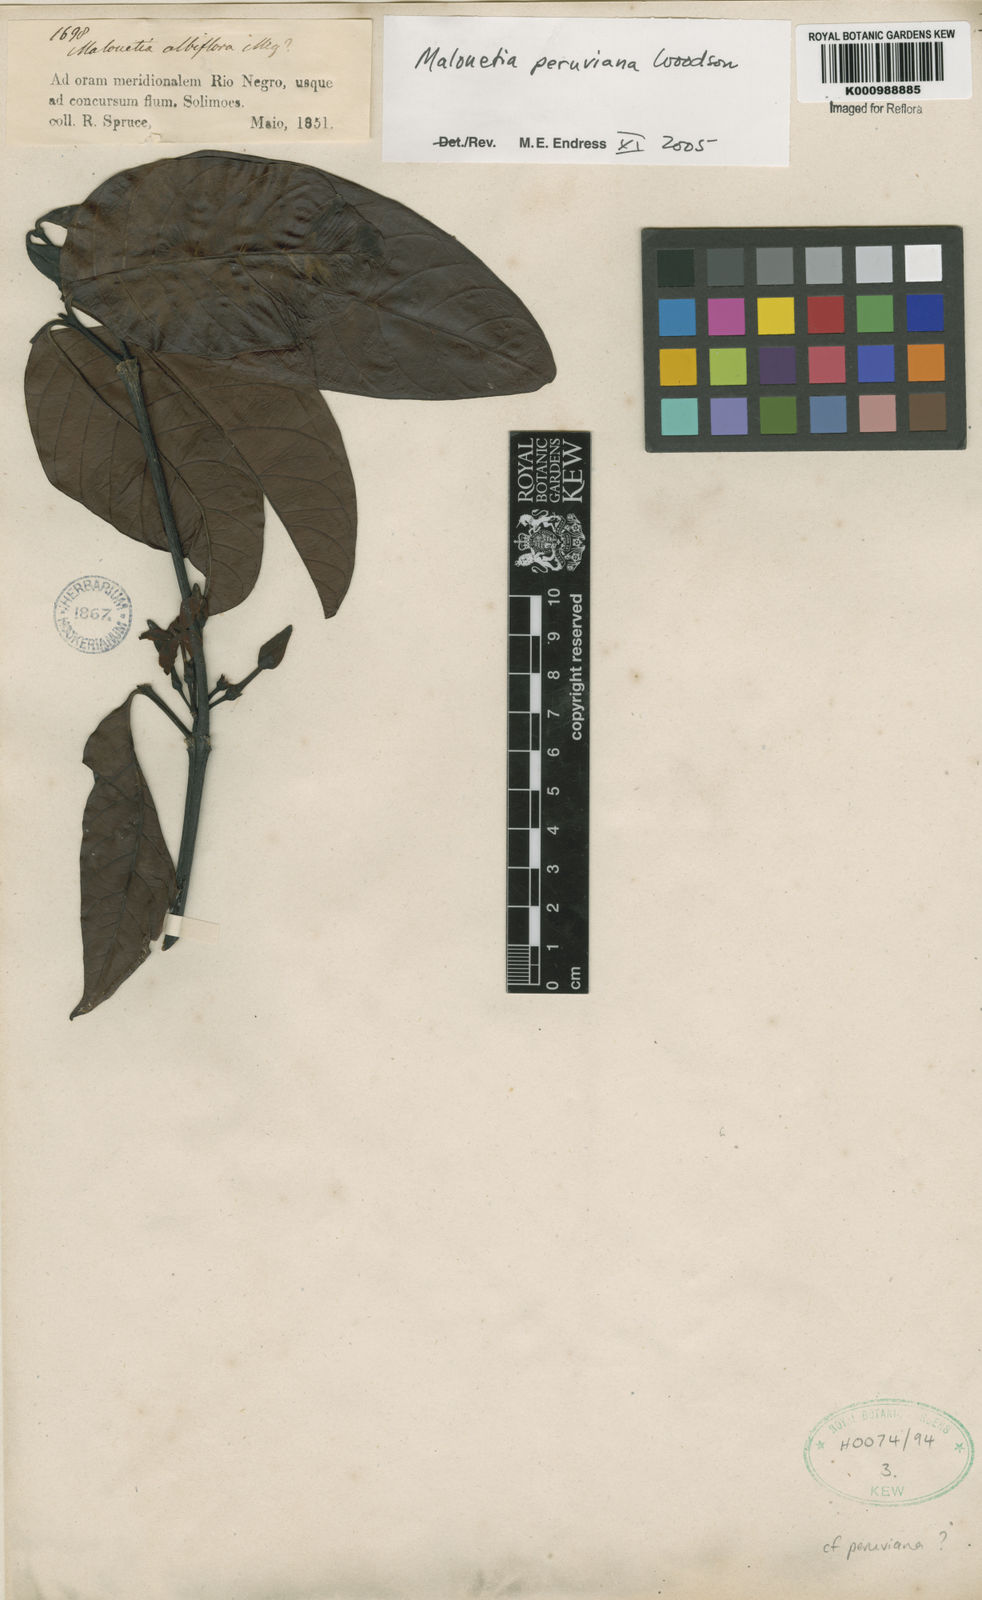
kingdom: Plantae
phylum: Tracheophyta
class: Magnoliopsida
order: Gentianales
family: Apocynaceae
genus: Malouetia
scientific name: Malouetia tamaquarina
